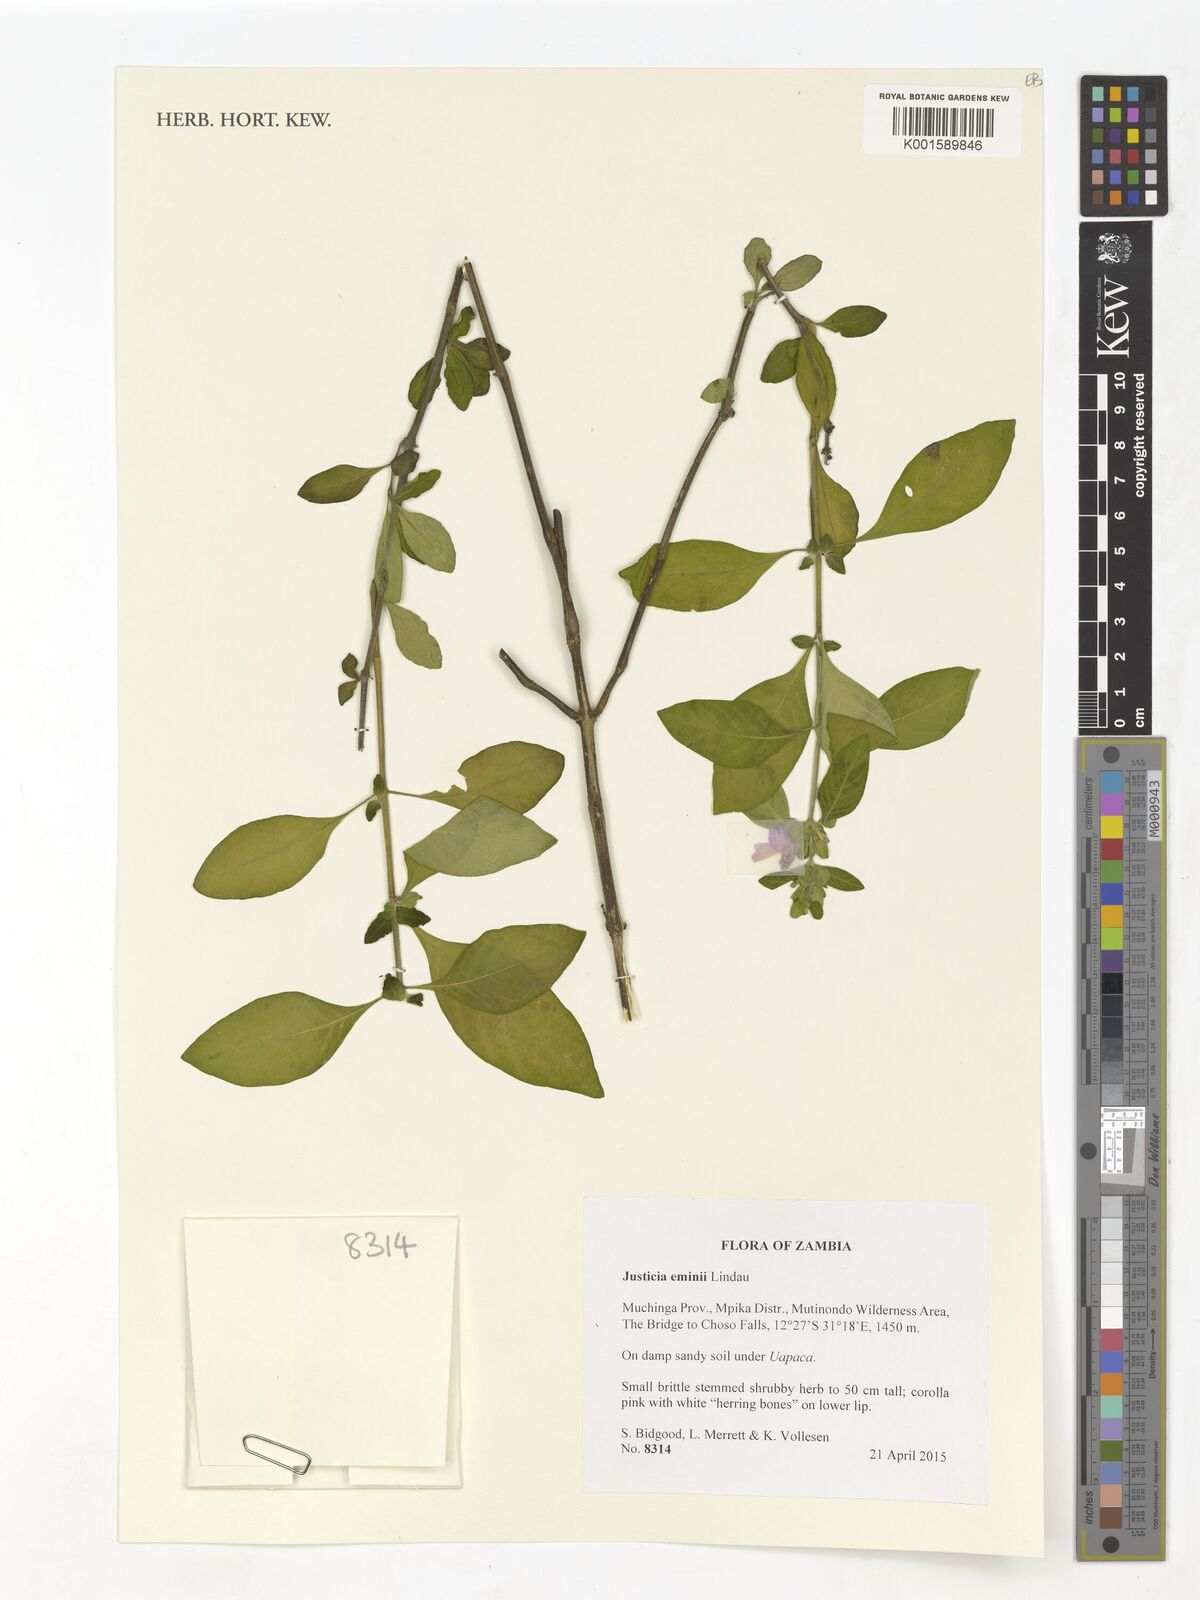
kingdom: Plantae
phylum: Tracheophyta
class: Magnoliopsida
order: Lamiales
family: Acanthaceae
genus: Monechma
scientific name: Monechma eminii
